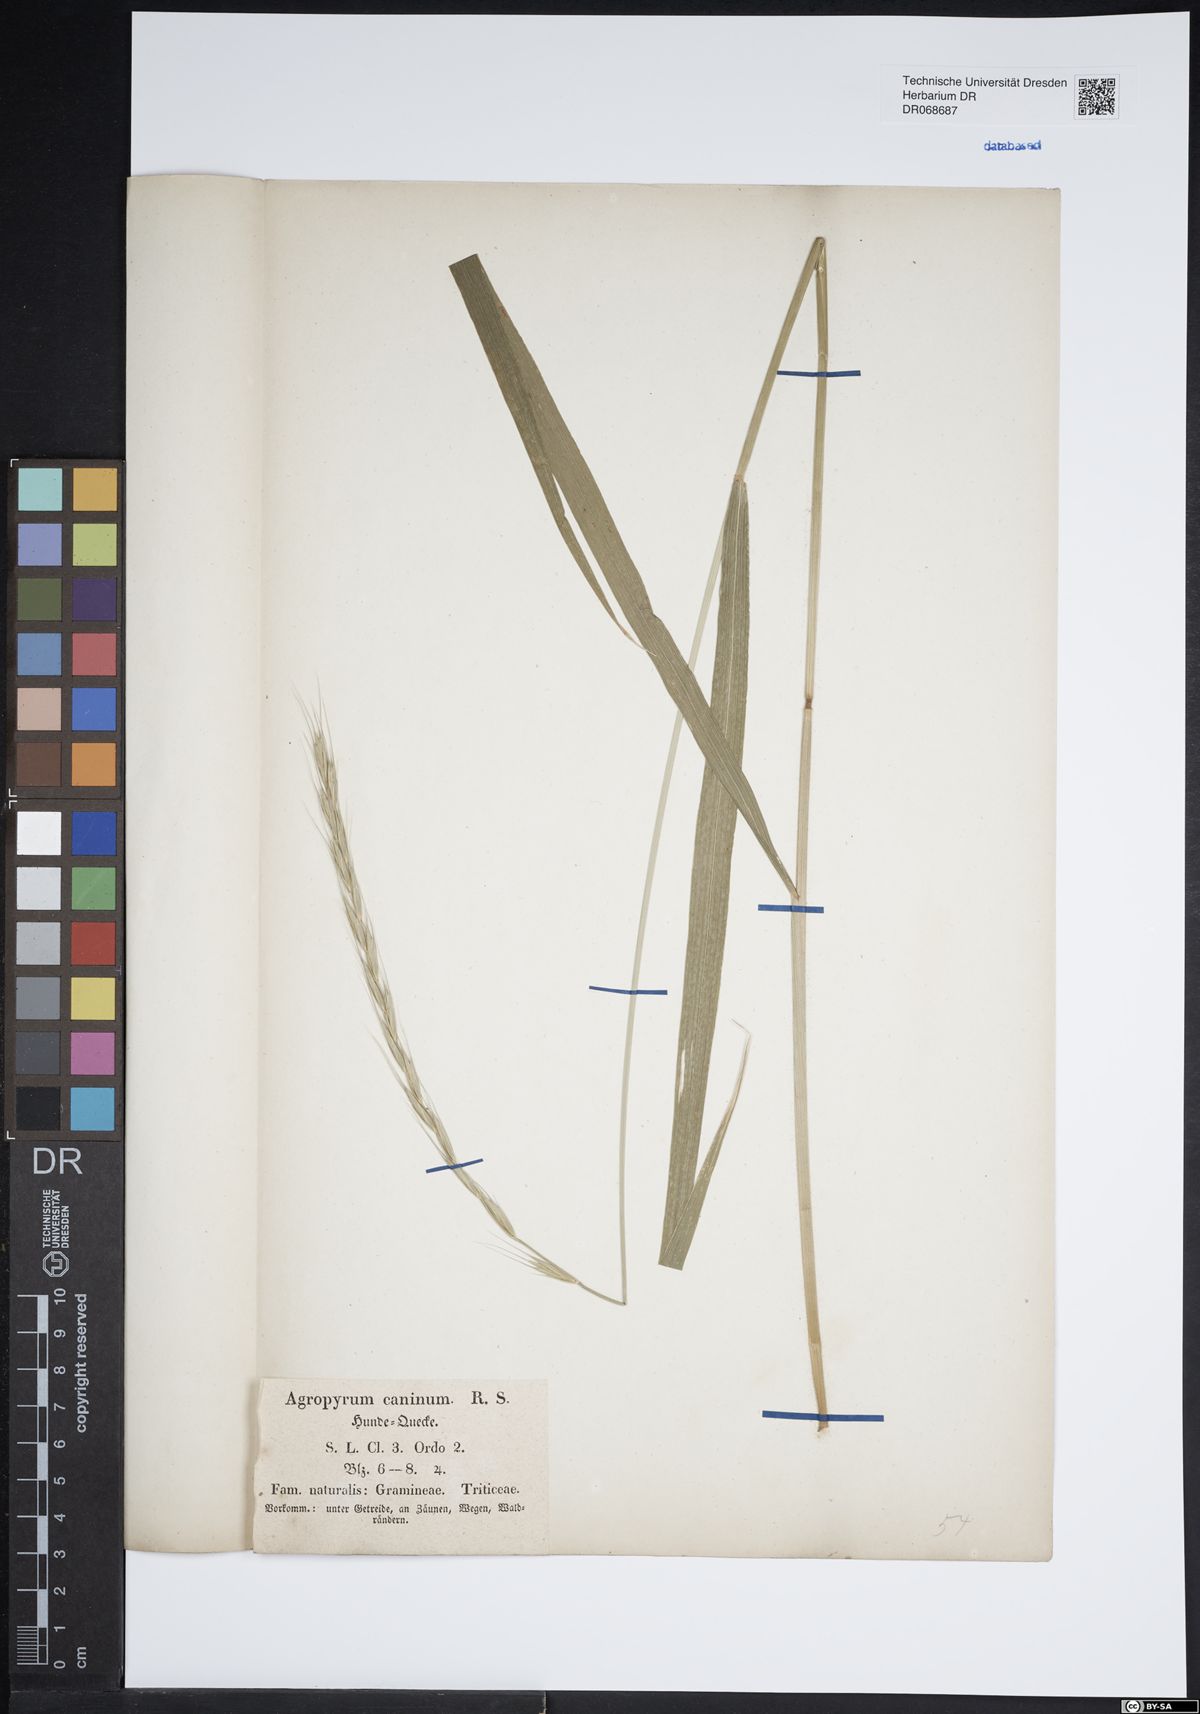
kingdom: Plantae
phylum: Tracheophyta
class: Liliopsida
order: Poales
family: Poaceae
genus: Elymus
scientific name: Elymus caninus
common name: Bearded couch
